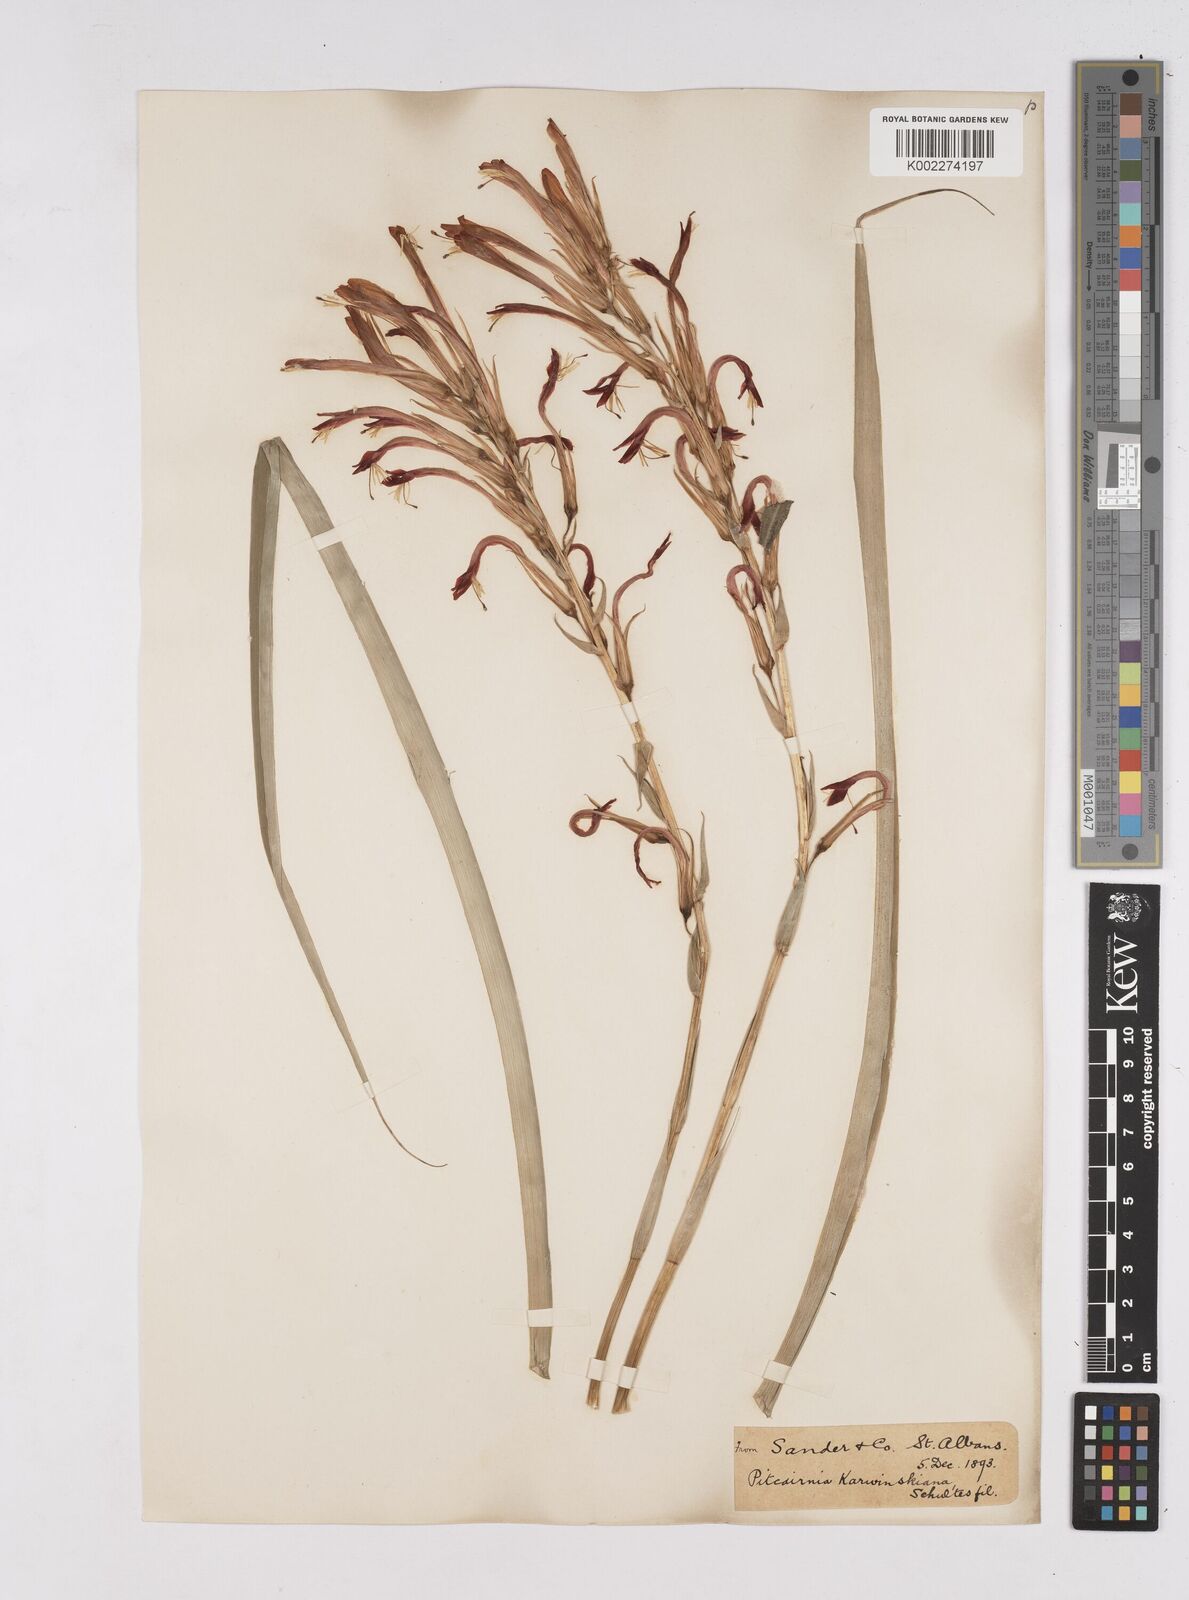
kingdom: Plantae
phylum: Tracheophyta
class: Liliopsida
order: Poales
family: Bromeliaceae
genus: Pitcairnia
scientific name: Pitcairnia ringens
